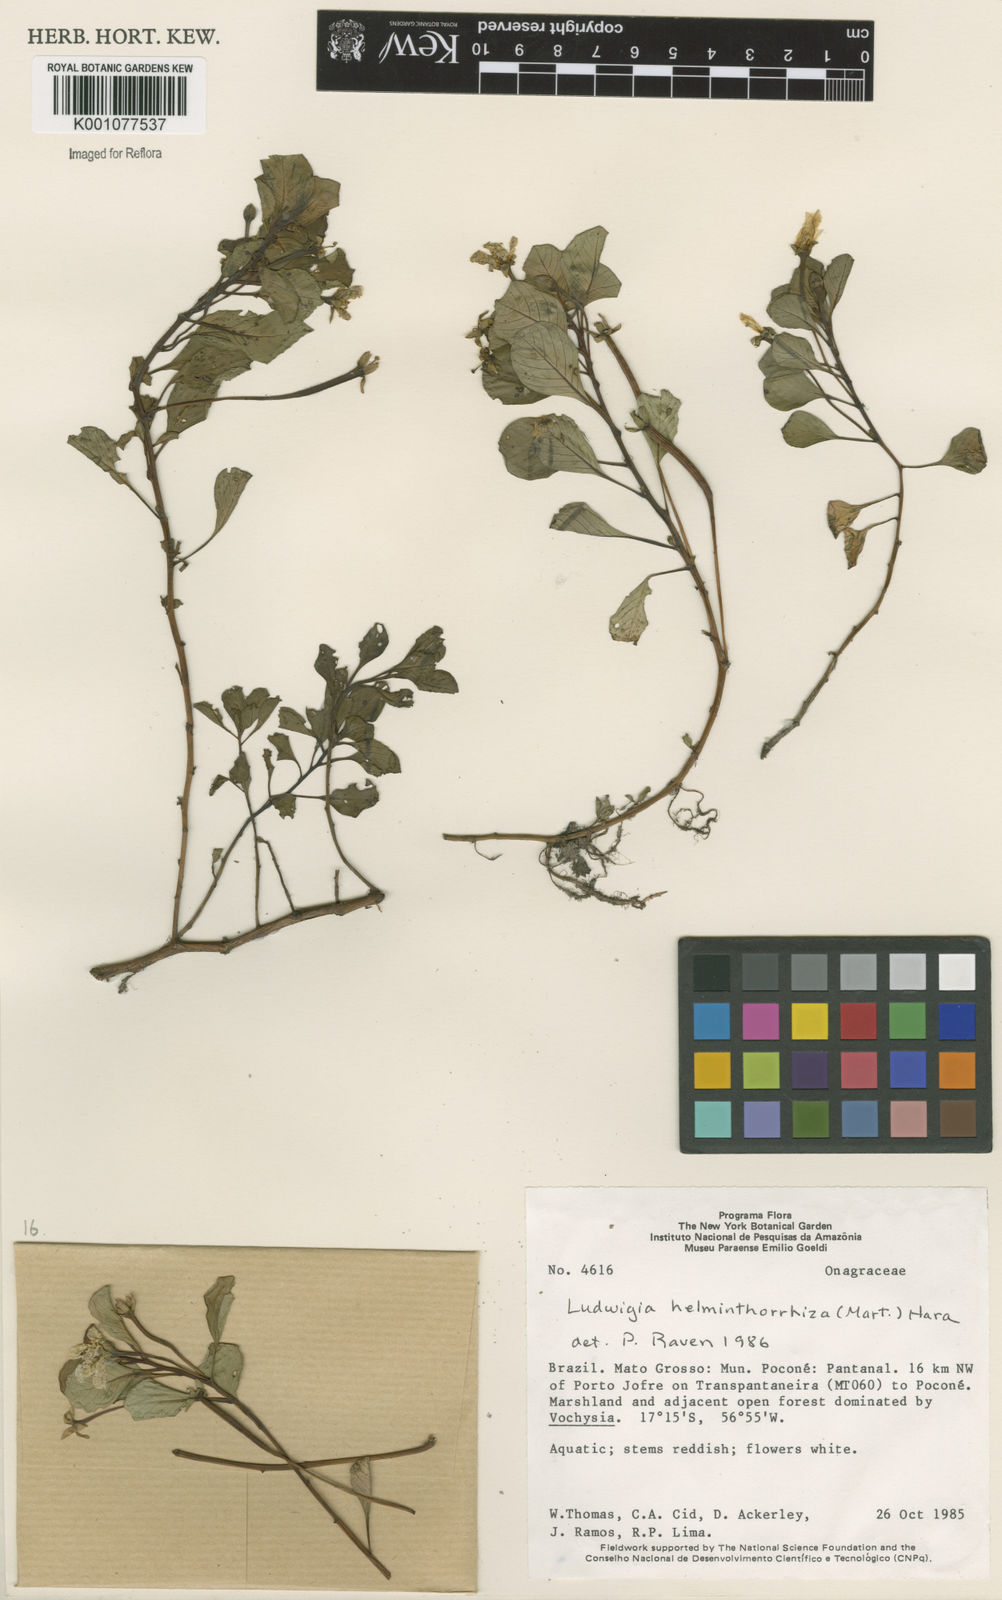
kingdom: Plantae
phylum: Tracheophyta
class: Magnoliopsida
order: Myrtales
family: Onagraceae
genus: Ludwigia
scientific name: Ludwigia helminthorrhiza
